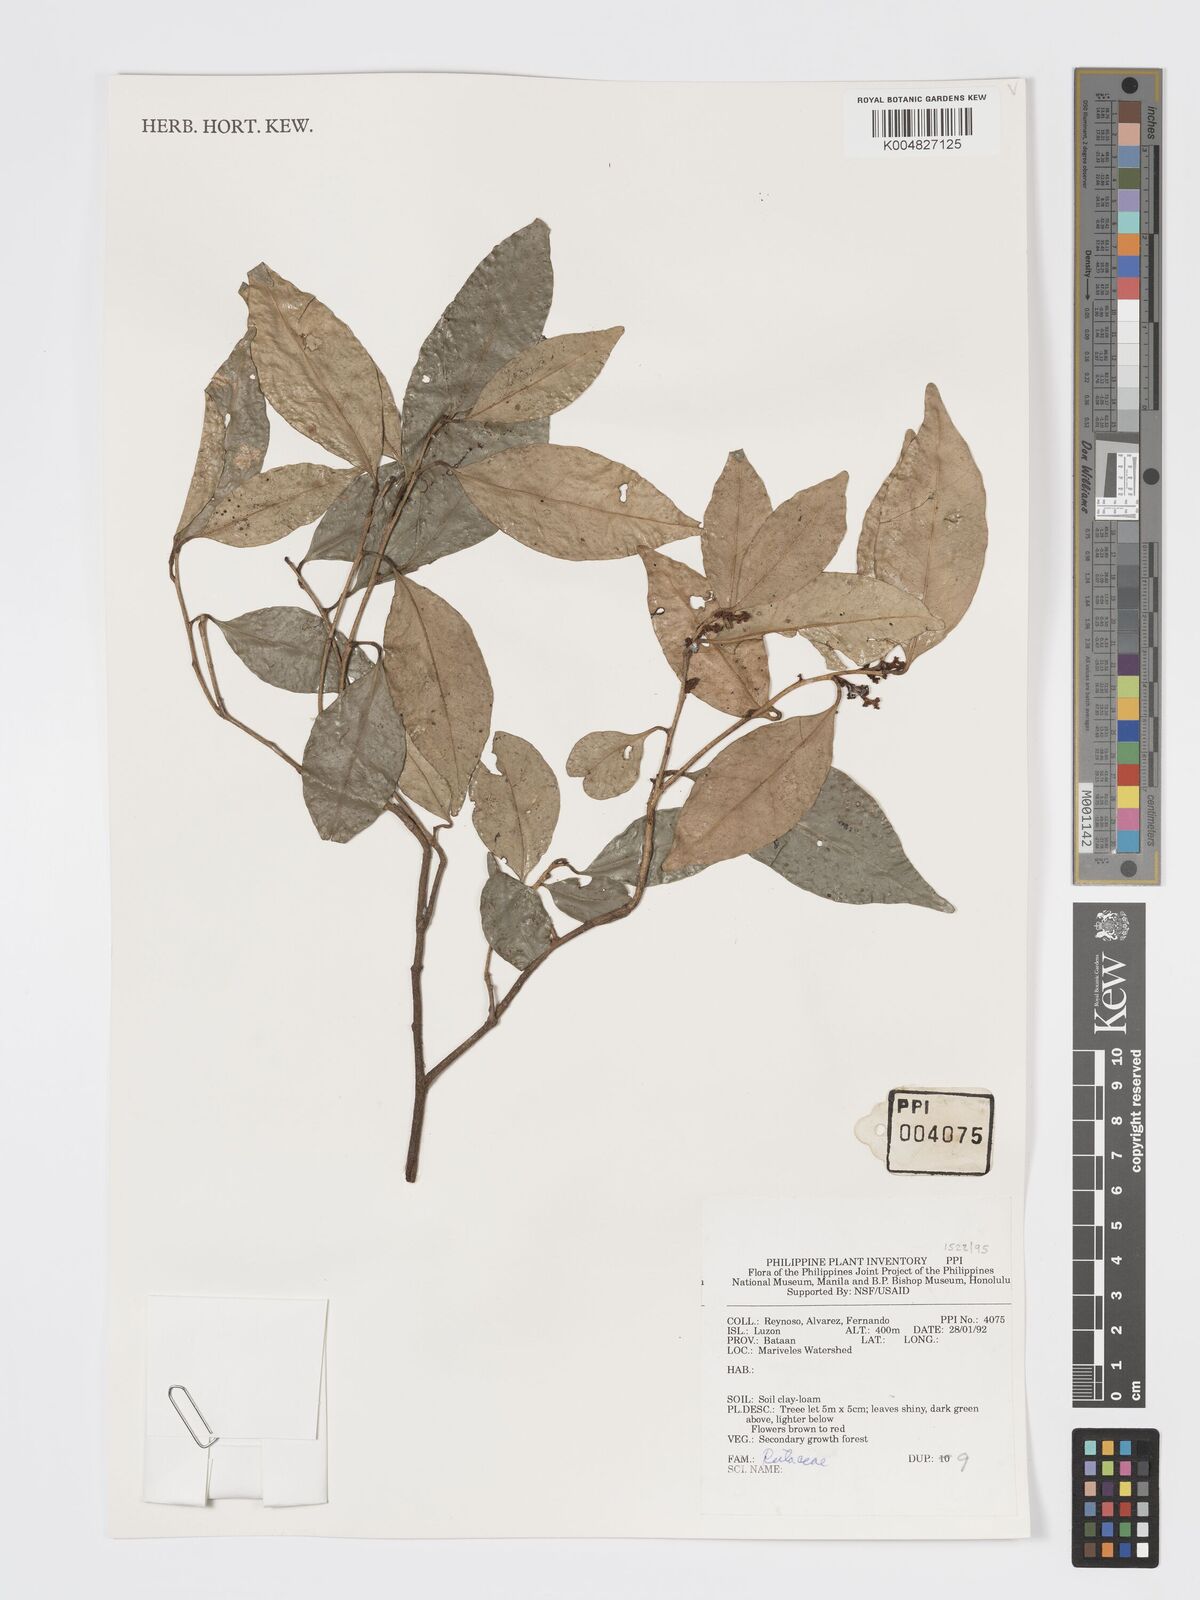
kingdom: Plantae
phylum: Tracheophyta
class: Magnoliopsida
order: Sapindales
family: Rutaceae
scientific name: Rutaceae
